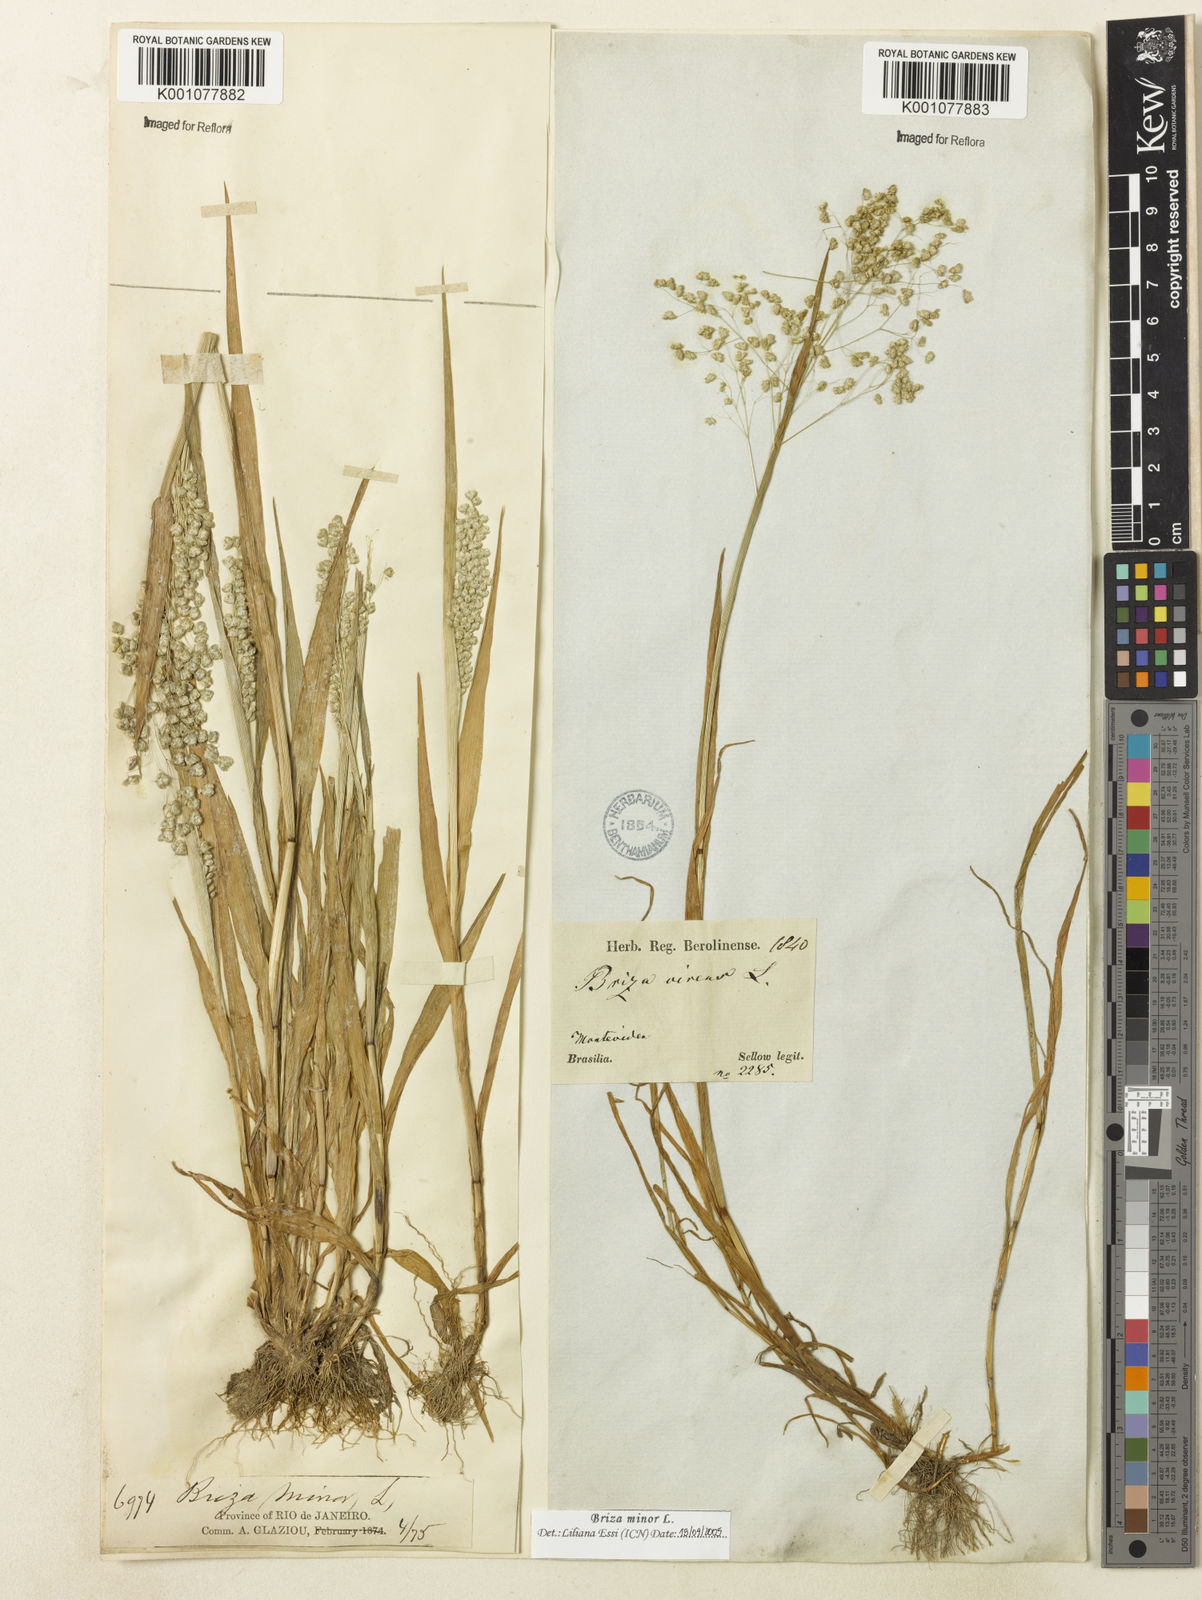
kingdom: Plantae
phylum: Tracheophyta
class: Liliopsida
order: Poales
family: Poaceae
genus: Briza
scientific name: Briza minor
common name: Lesser quaking-grass
